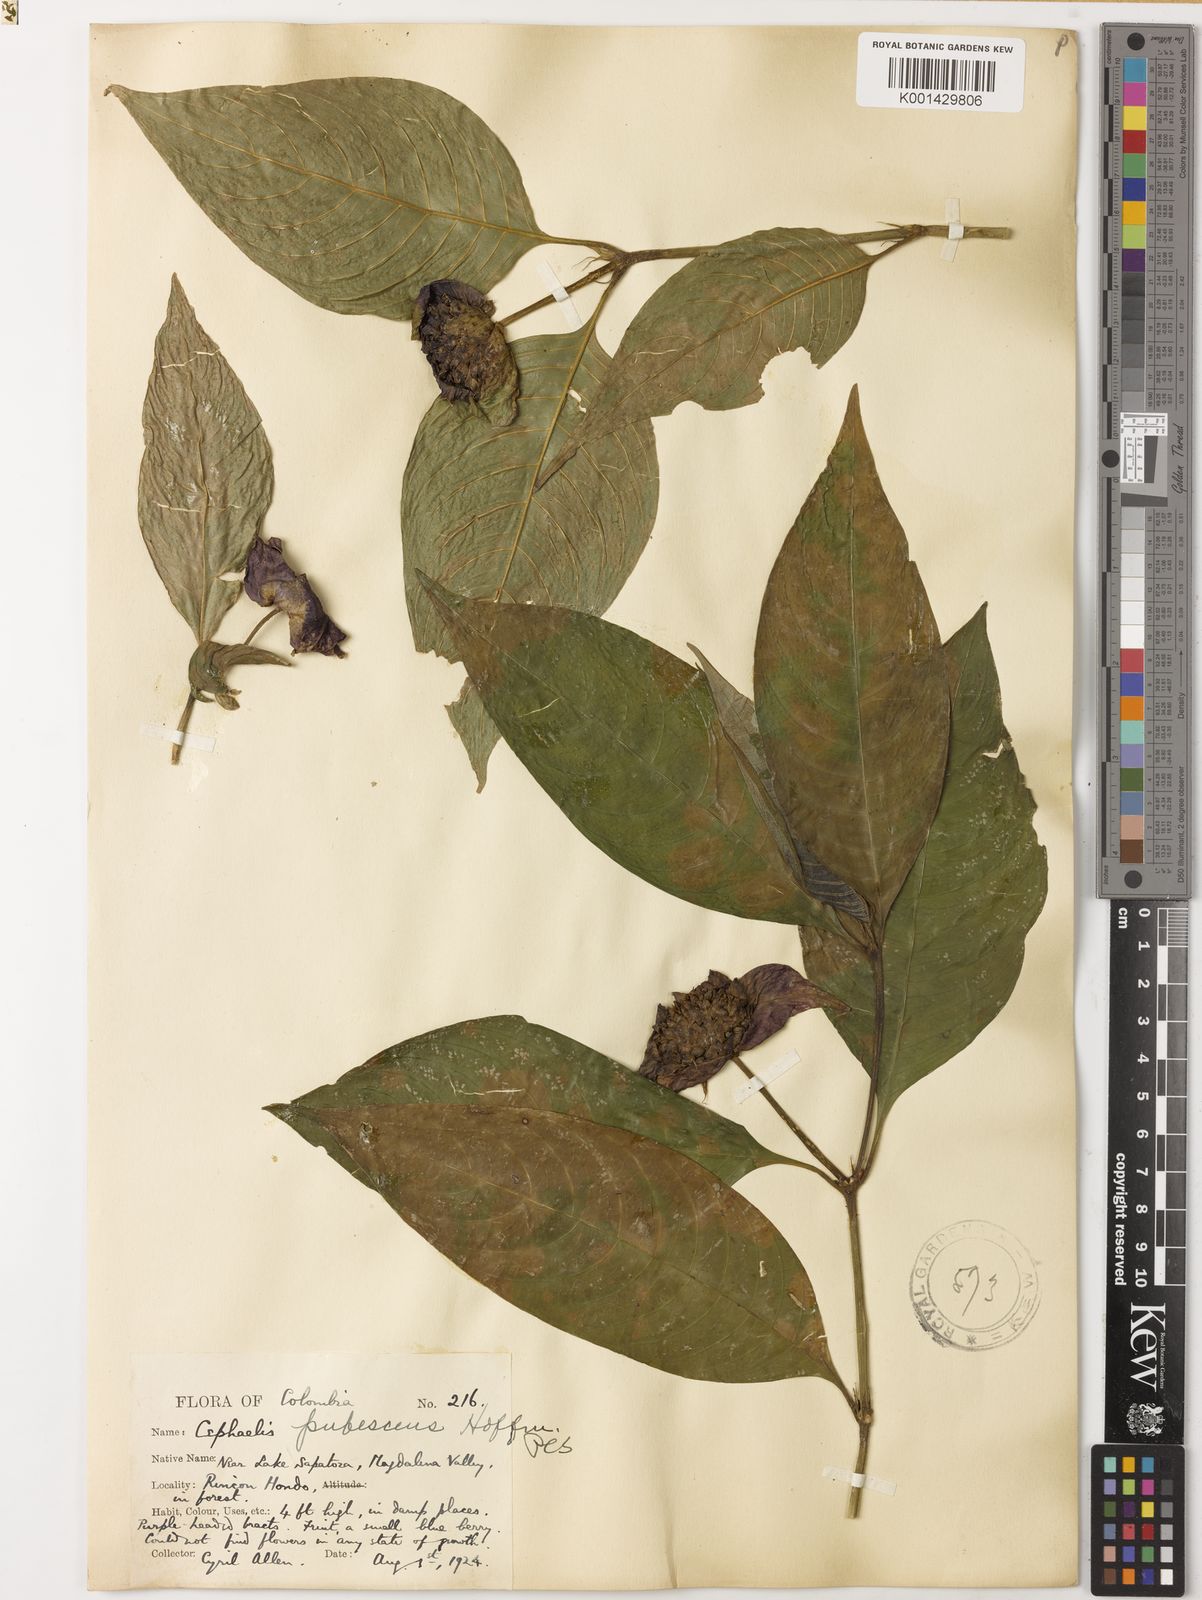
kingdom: Plantae
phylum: Tracheophyta
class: Magnoliopsida
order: Gentianales
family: Rubiaceae
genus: Psychotria
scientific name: Psychotria
